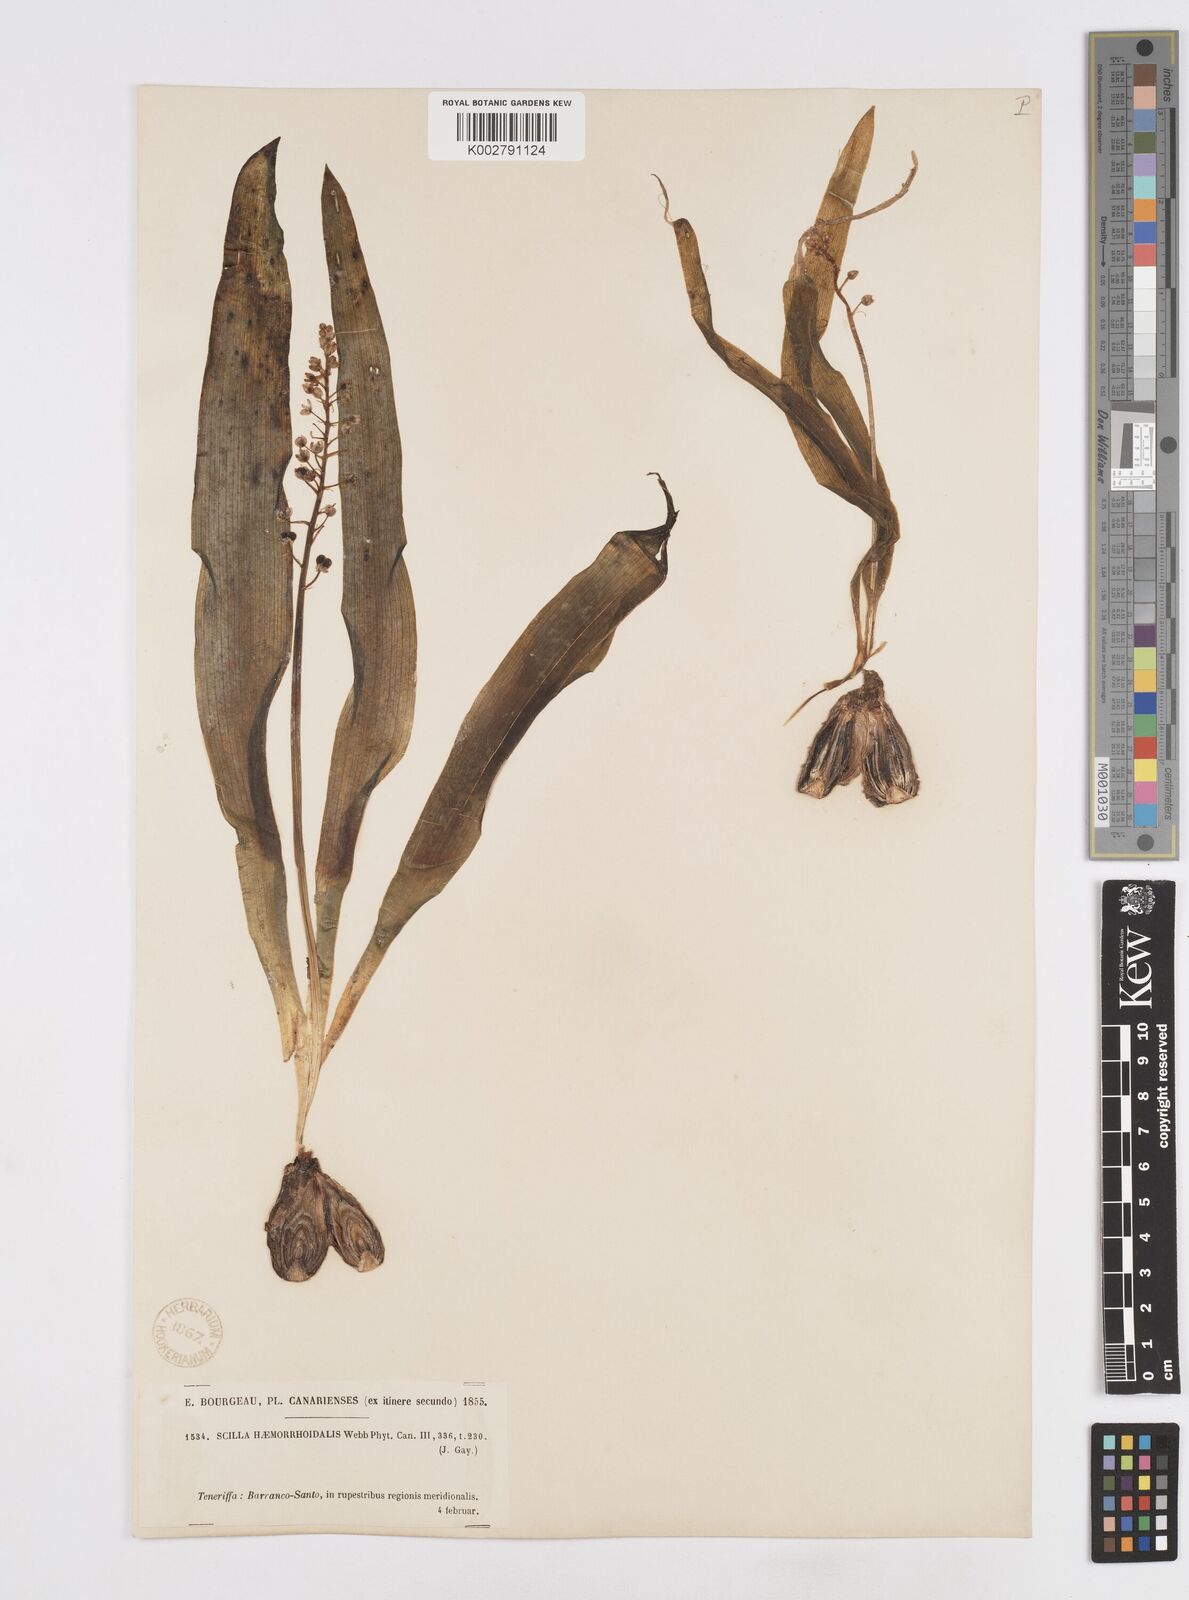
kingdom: Plantae
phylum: Tracheophyta
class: Liliopsida
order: Asparagales
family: Asparagaceae
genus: Scilla
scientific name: Scilla haemorrhoidalis
